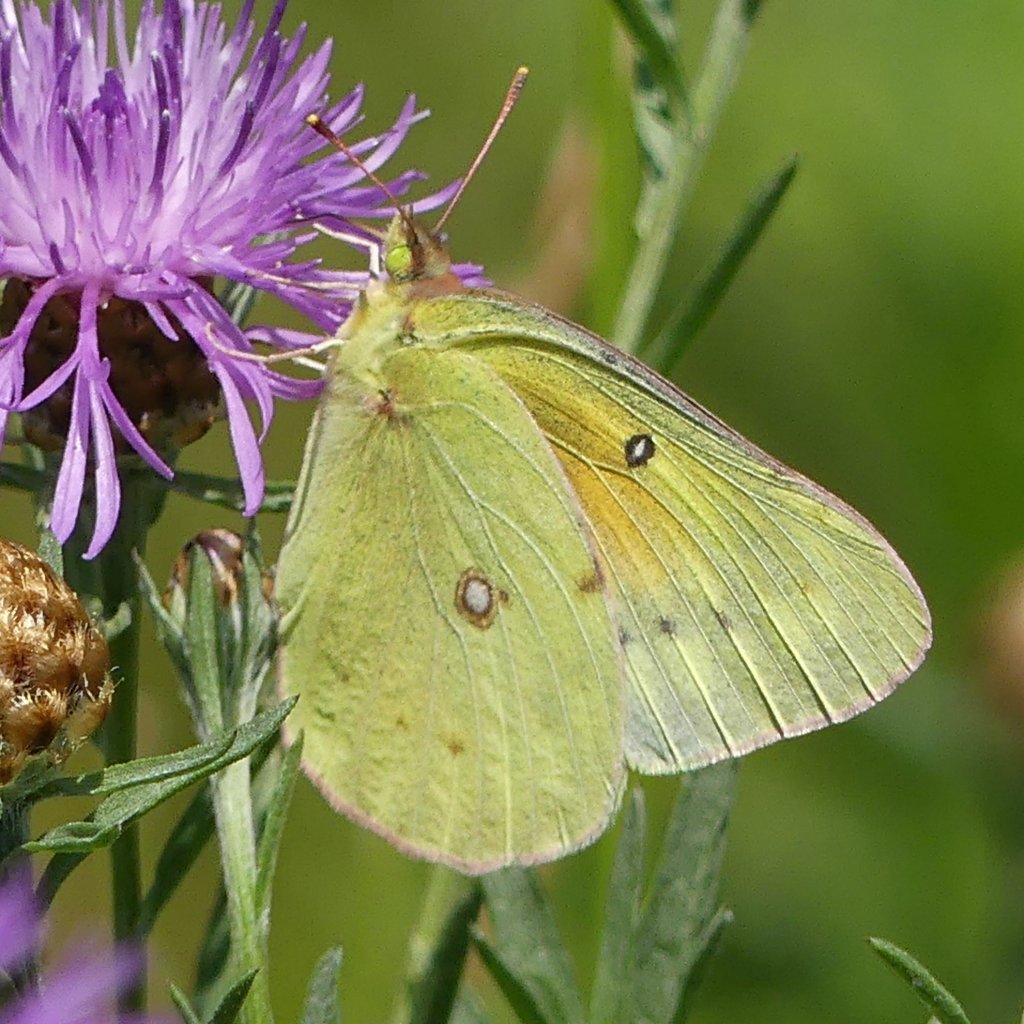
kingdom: Animalia
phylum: Arthropoda
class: Insecta
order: Lepidoptera
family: Pieridae
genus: Colias
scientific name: Colias eurytheme
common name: Orange Sulphur
